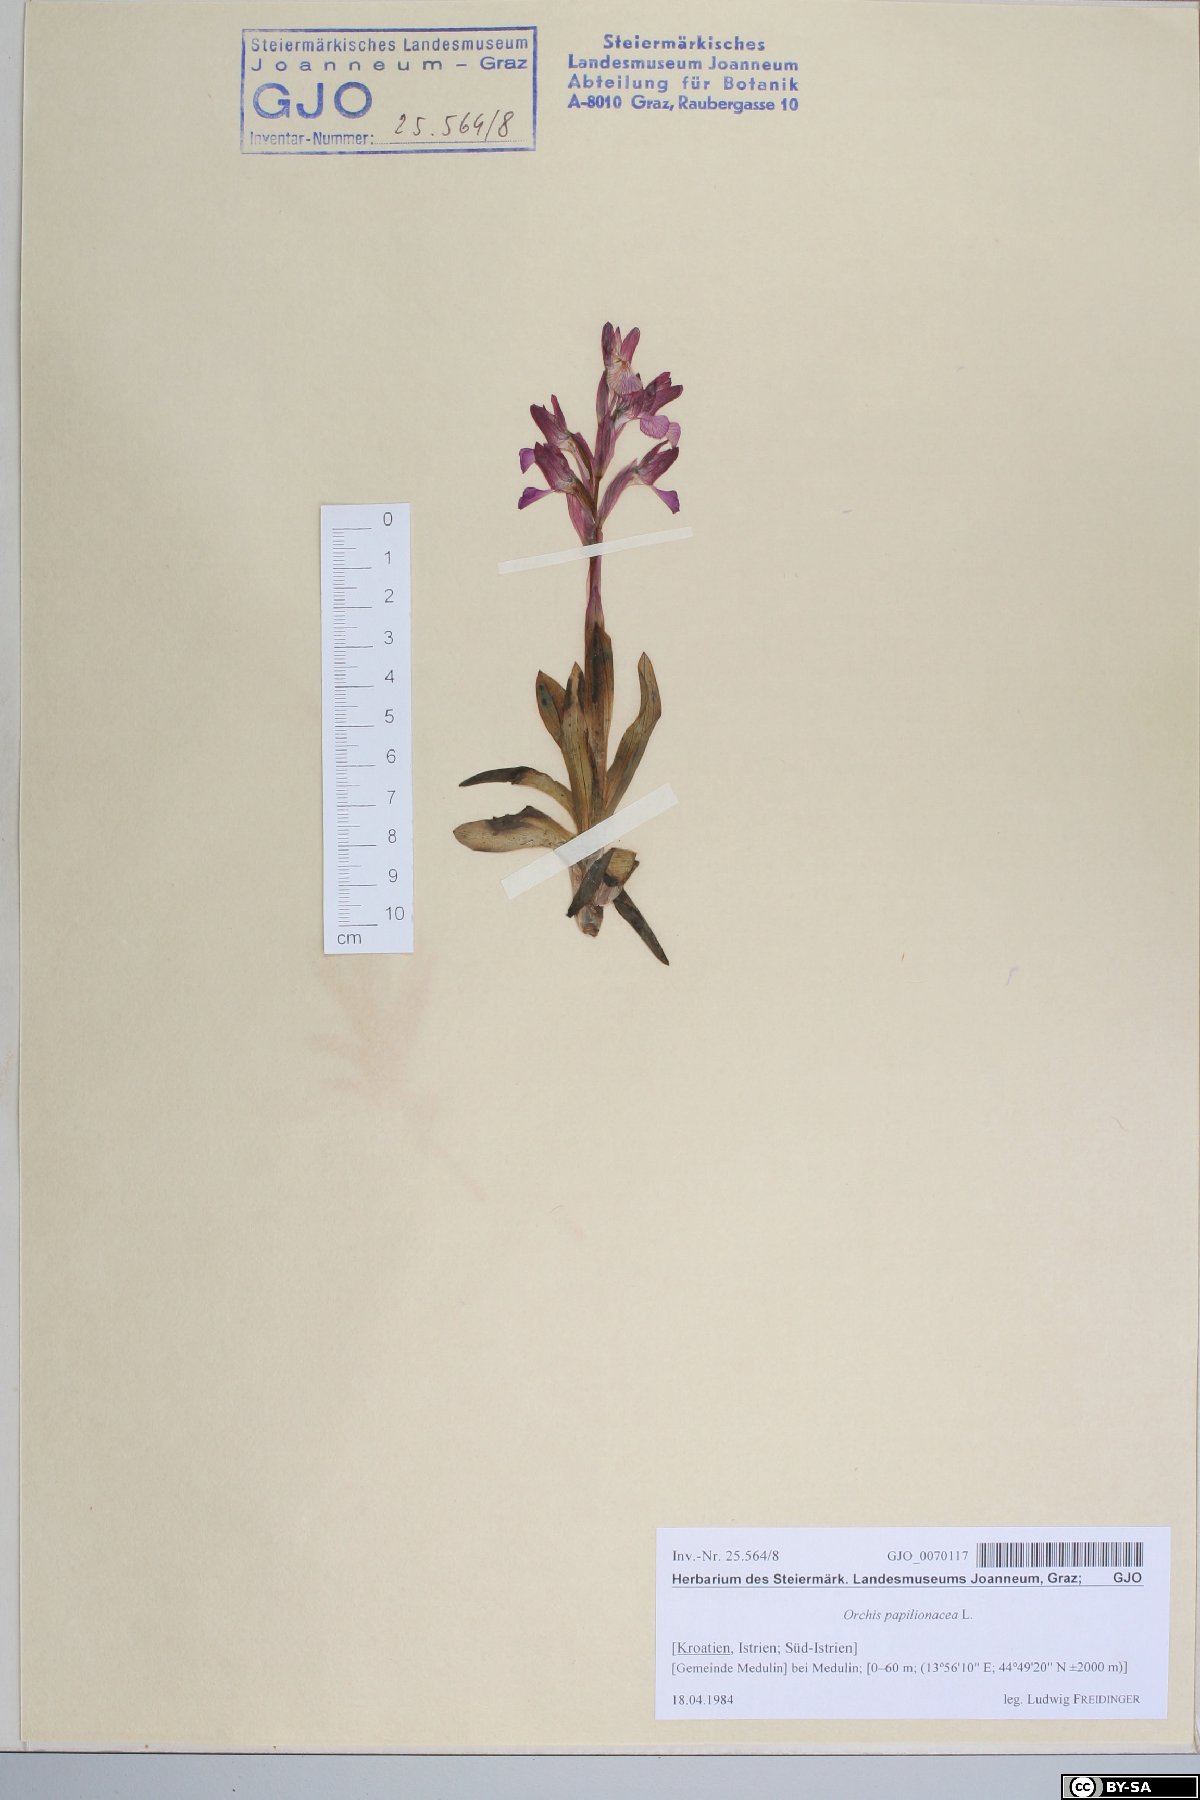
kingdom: Plantae
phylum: Tracheophyta
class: Liliopsida
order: Asparagales
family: Orchidaceae
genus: Anacamptis
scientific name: Anacamptis papilionacea
